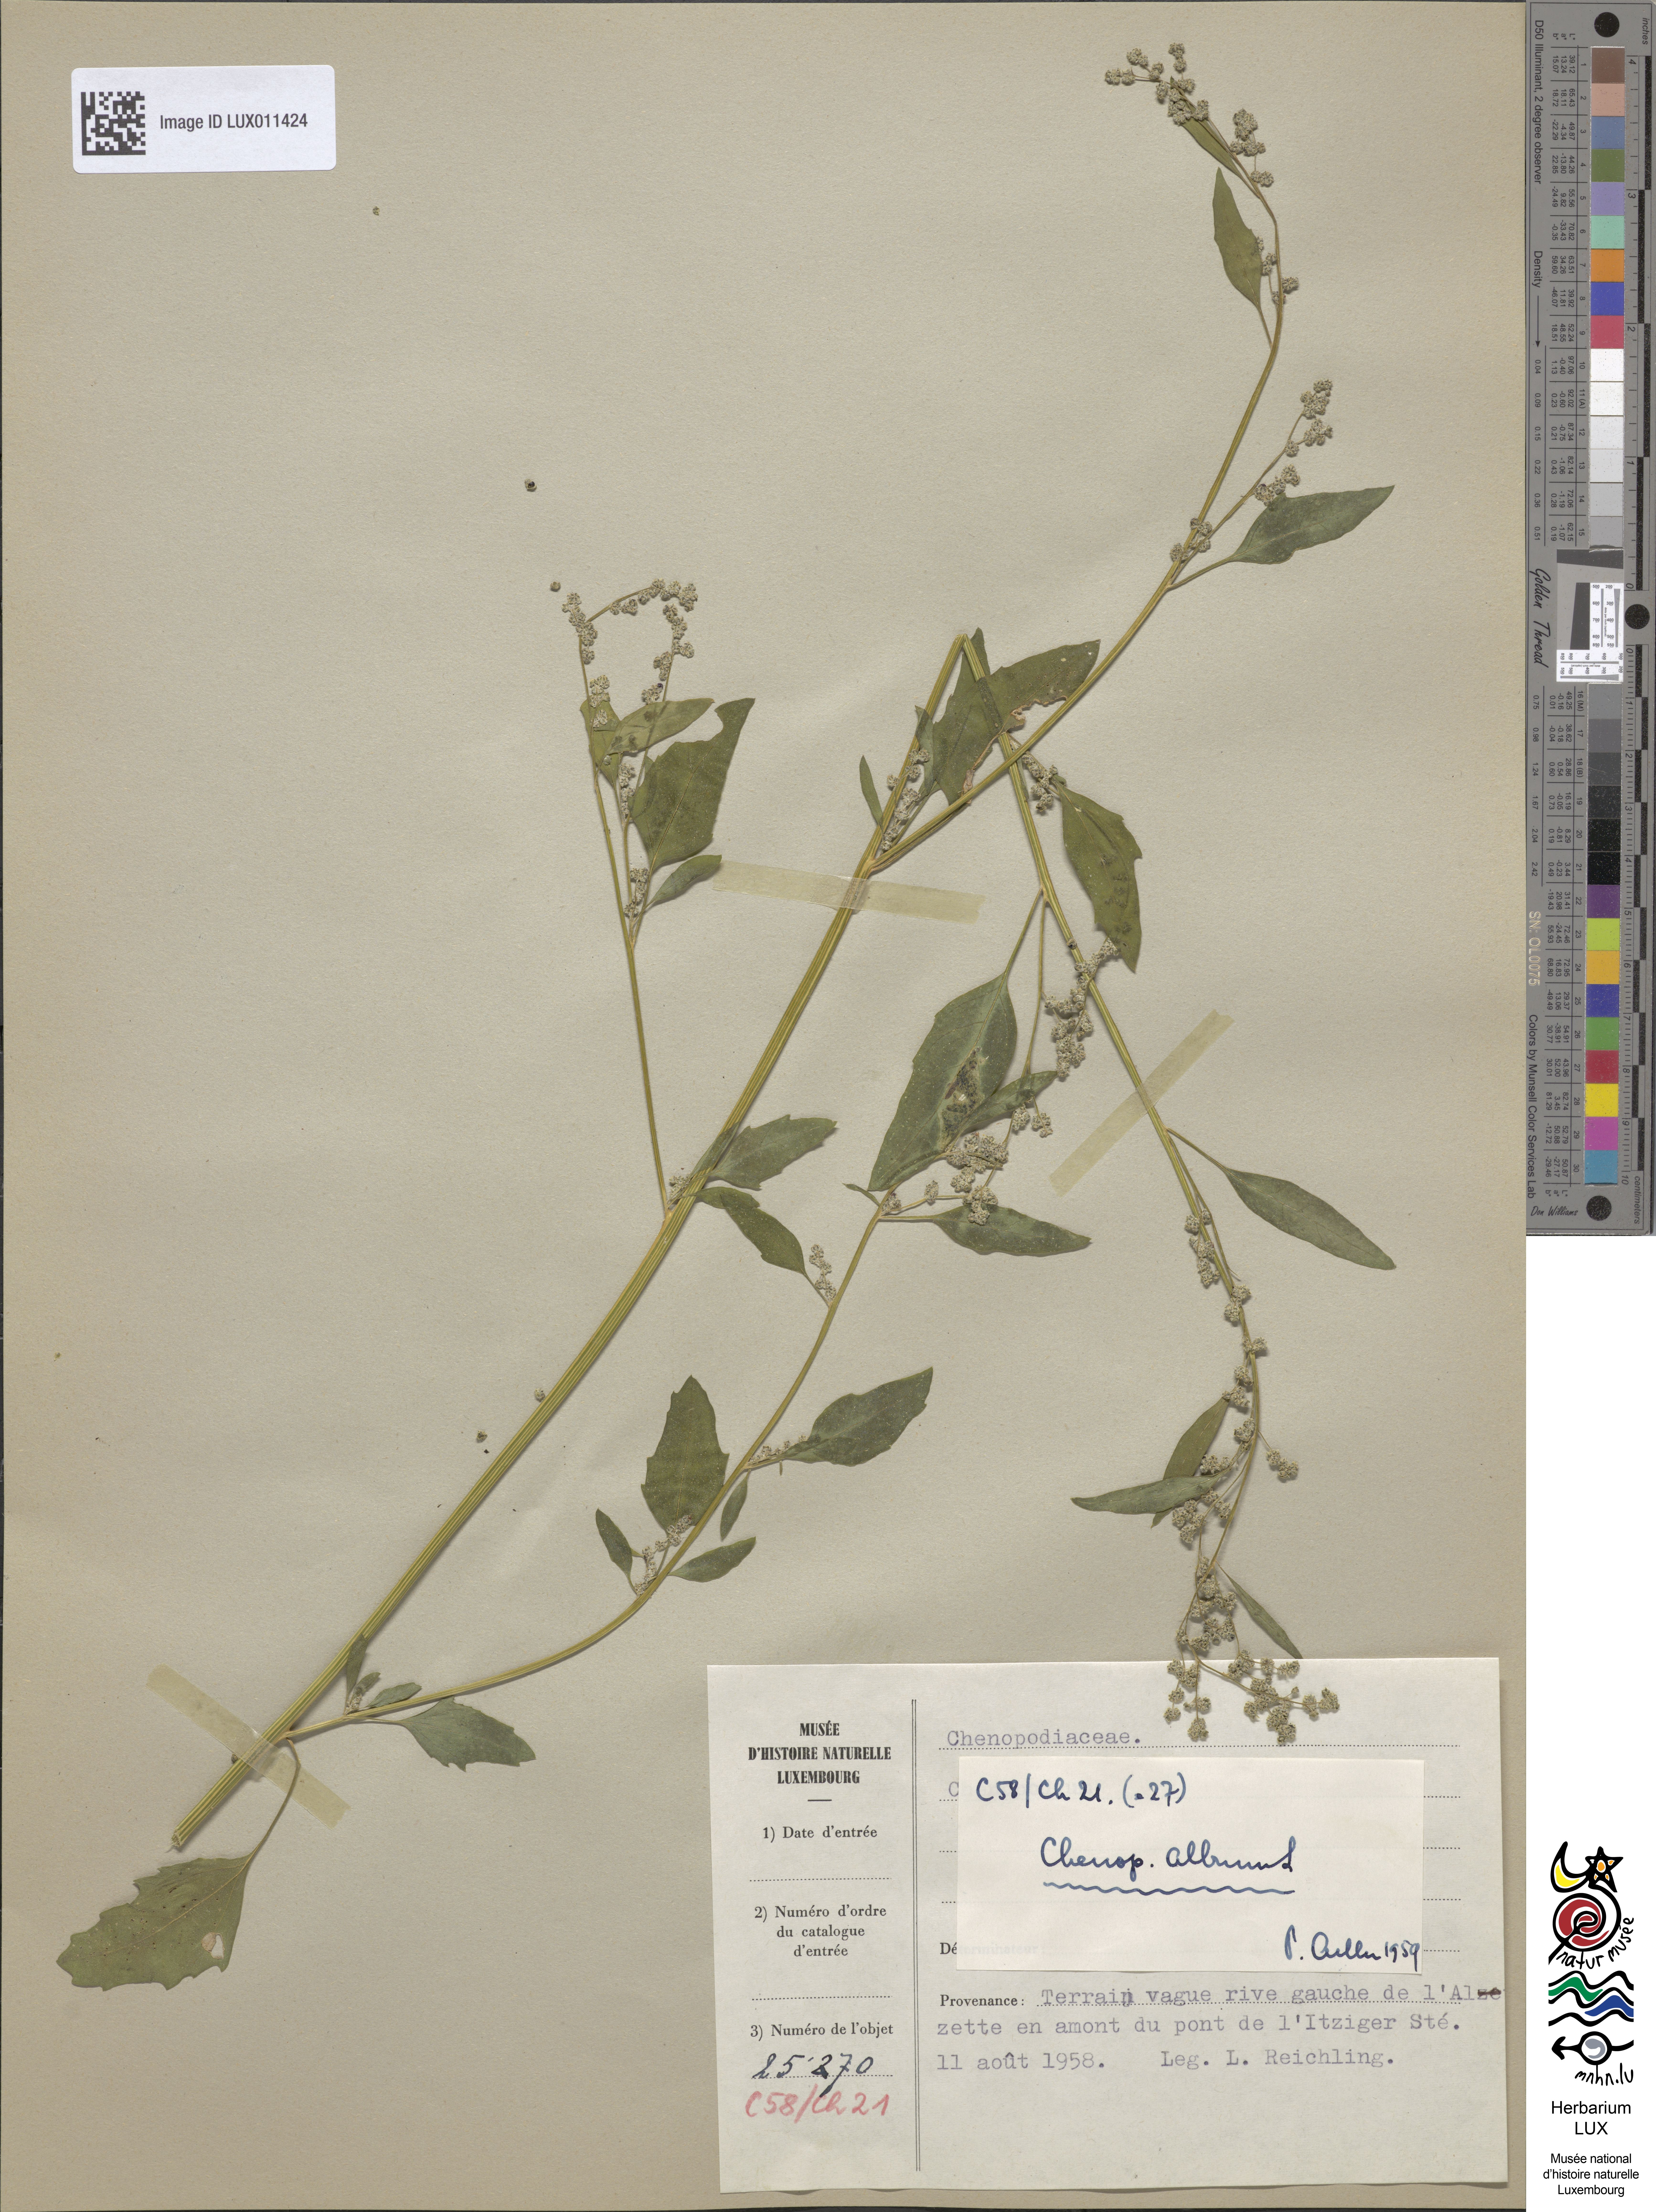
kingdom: Plantae
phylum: Tracheophyta
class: Magnoliopsida
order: Caryophyllales
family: Amaranthaceae
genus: Chenopodium
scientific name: Chenopodium album
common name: Fat-hen
